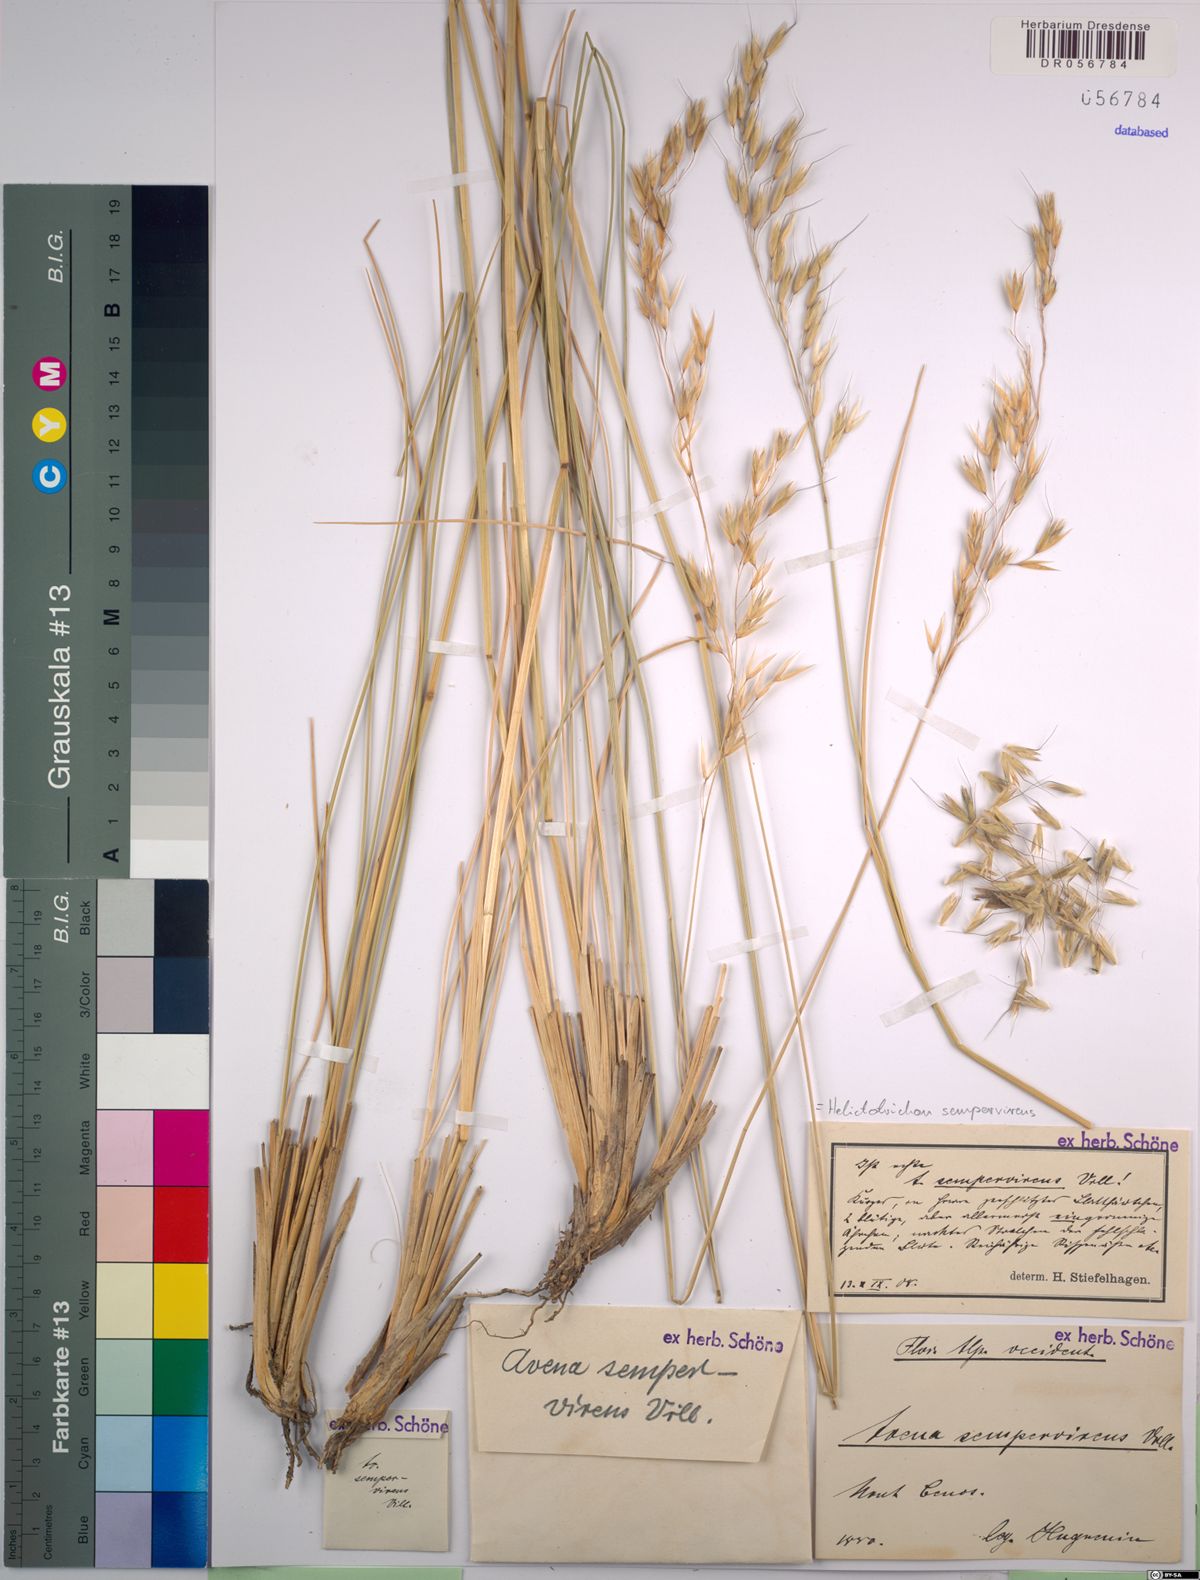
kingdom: Plantae
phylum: Tracheophyta
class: Liliopsida
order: Poales
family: Poaceae
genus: Helictotrichon
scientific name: Helictotrichon sempervirens
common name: Blue oat-grass
